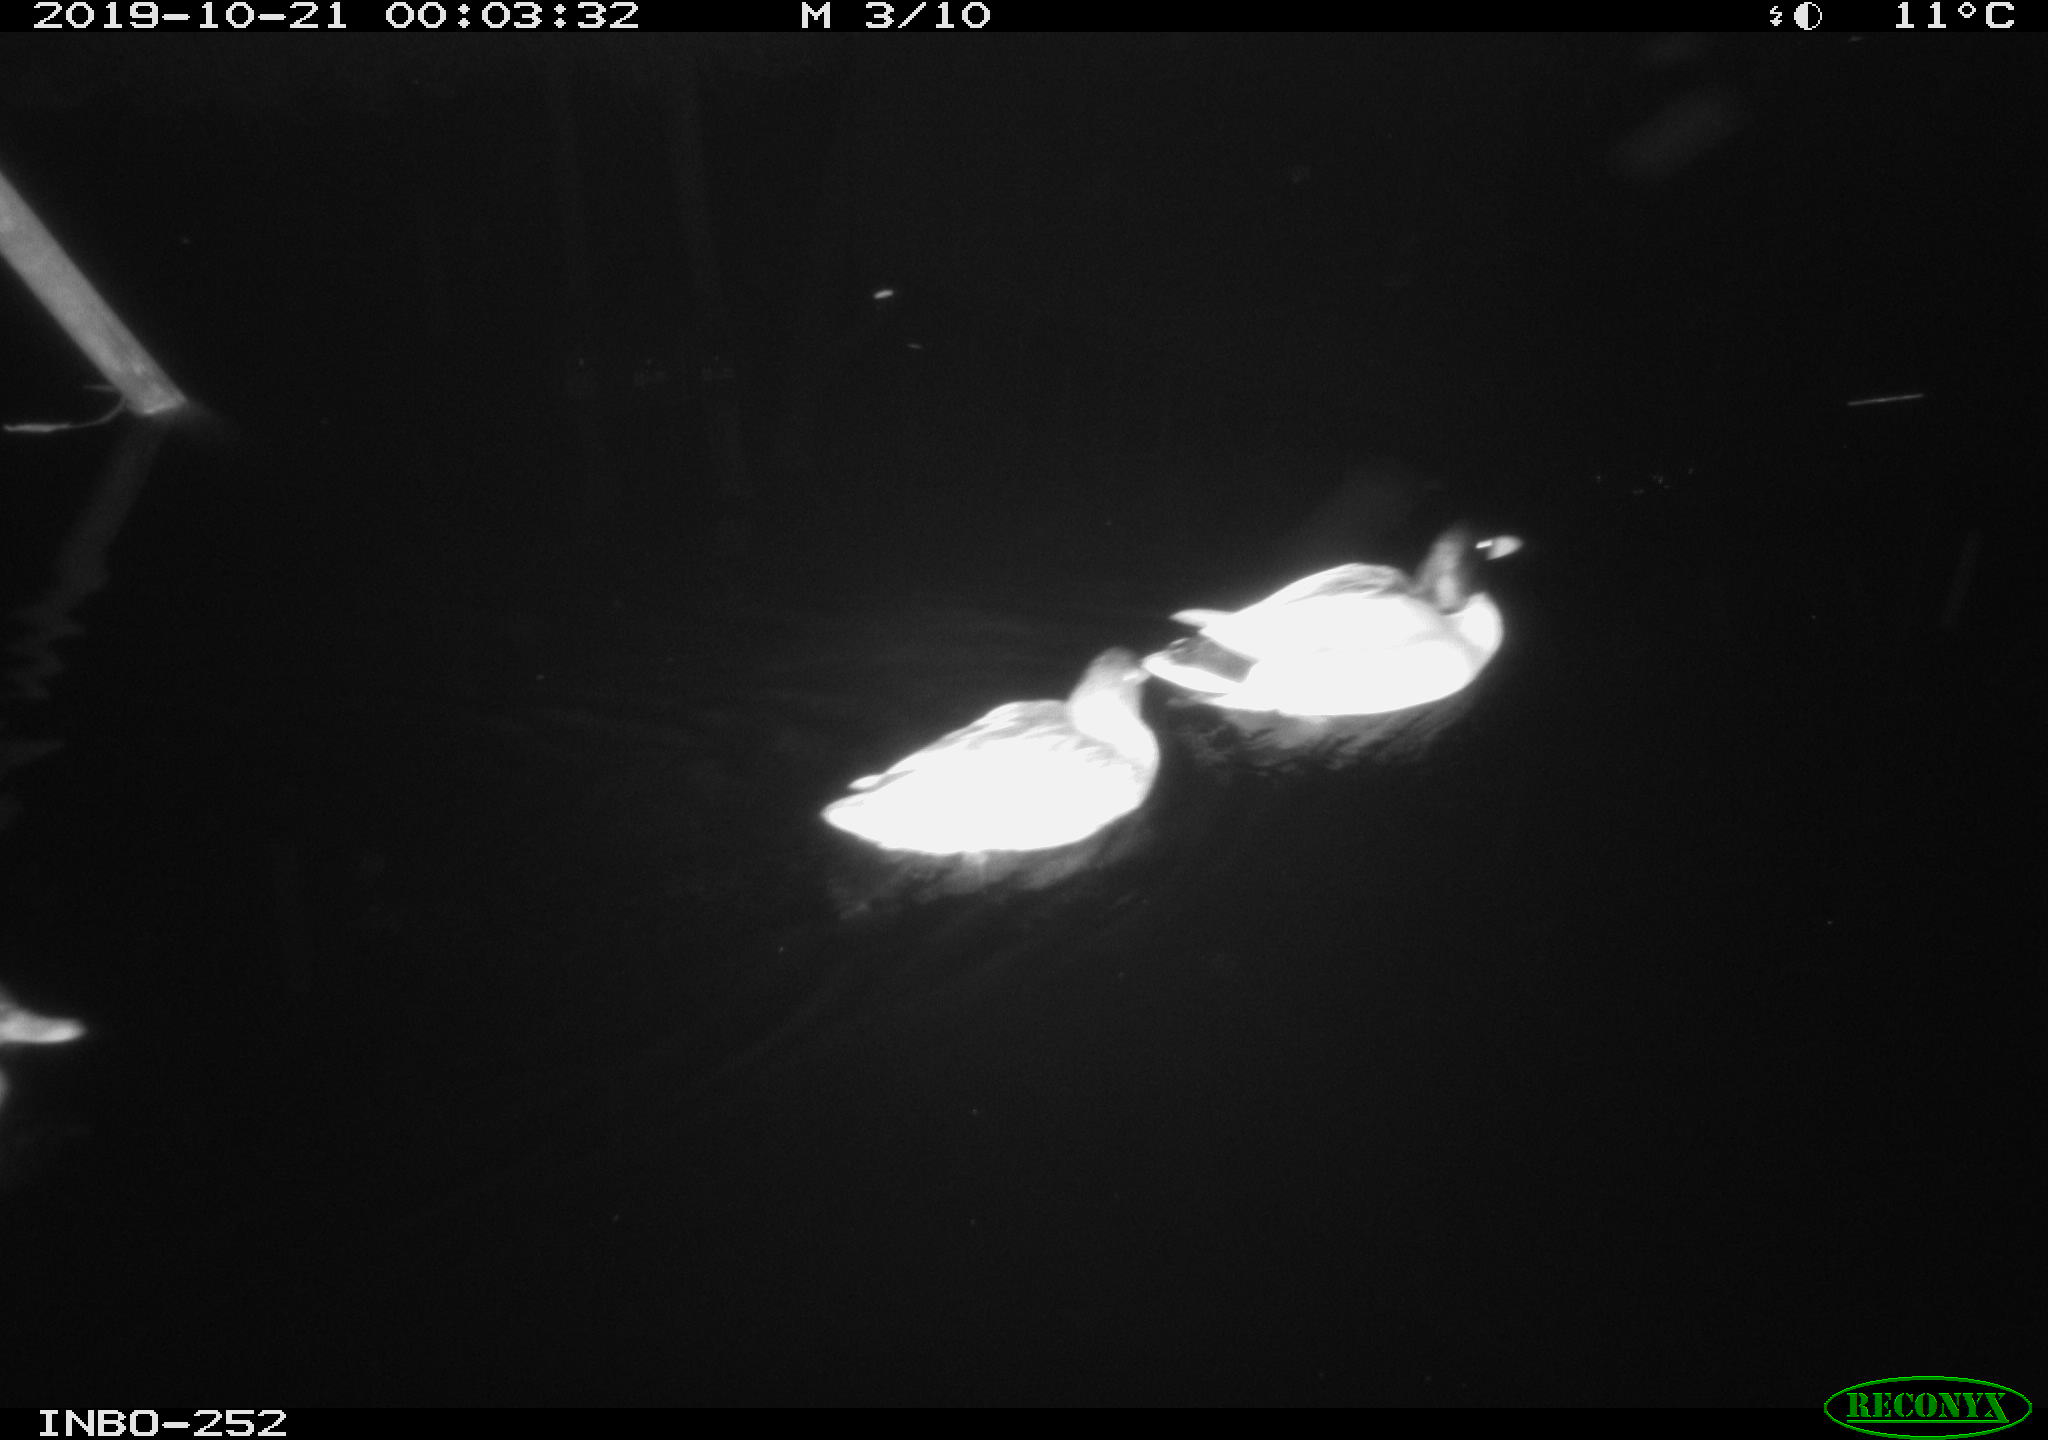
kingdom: Animalia
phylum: Chordata
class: Aves
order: Anseriformes
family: Anatidae
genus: Anas
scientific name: Anas platyrhynchos
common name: Mallard
